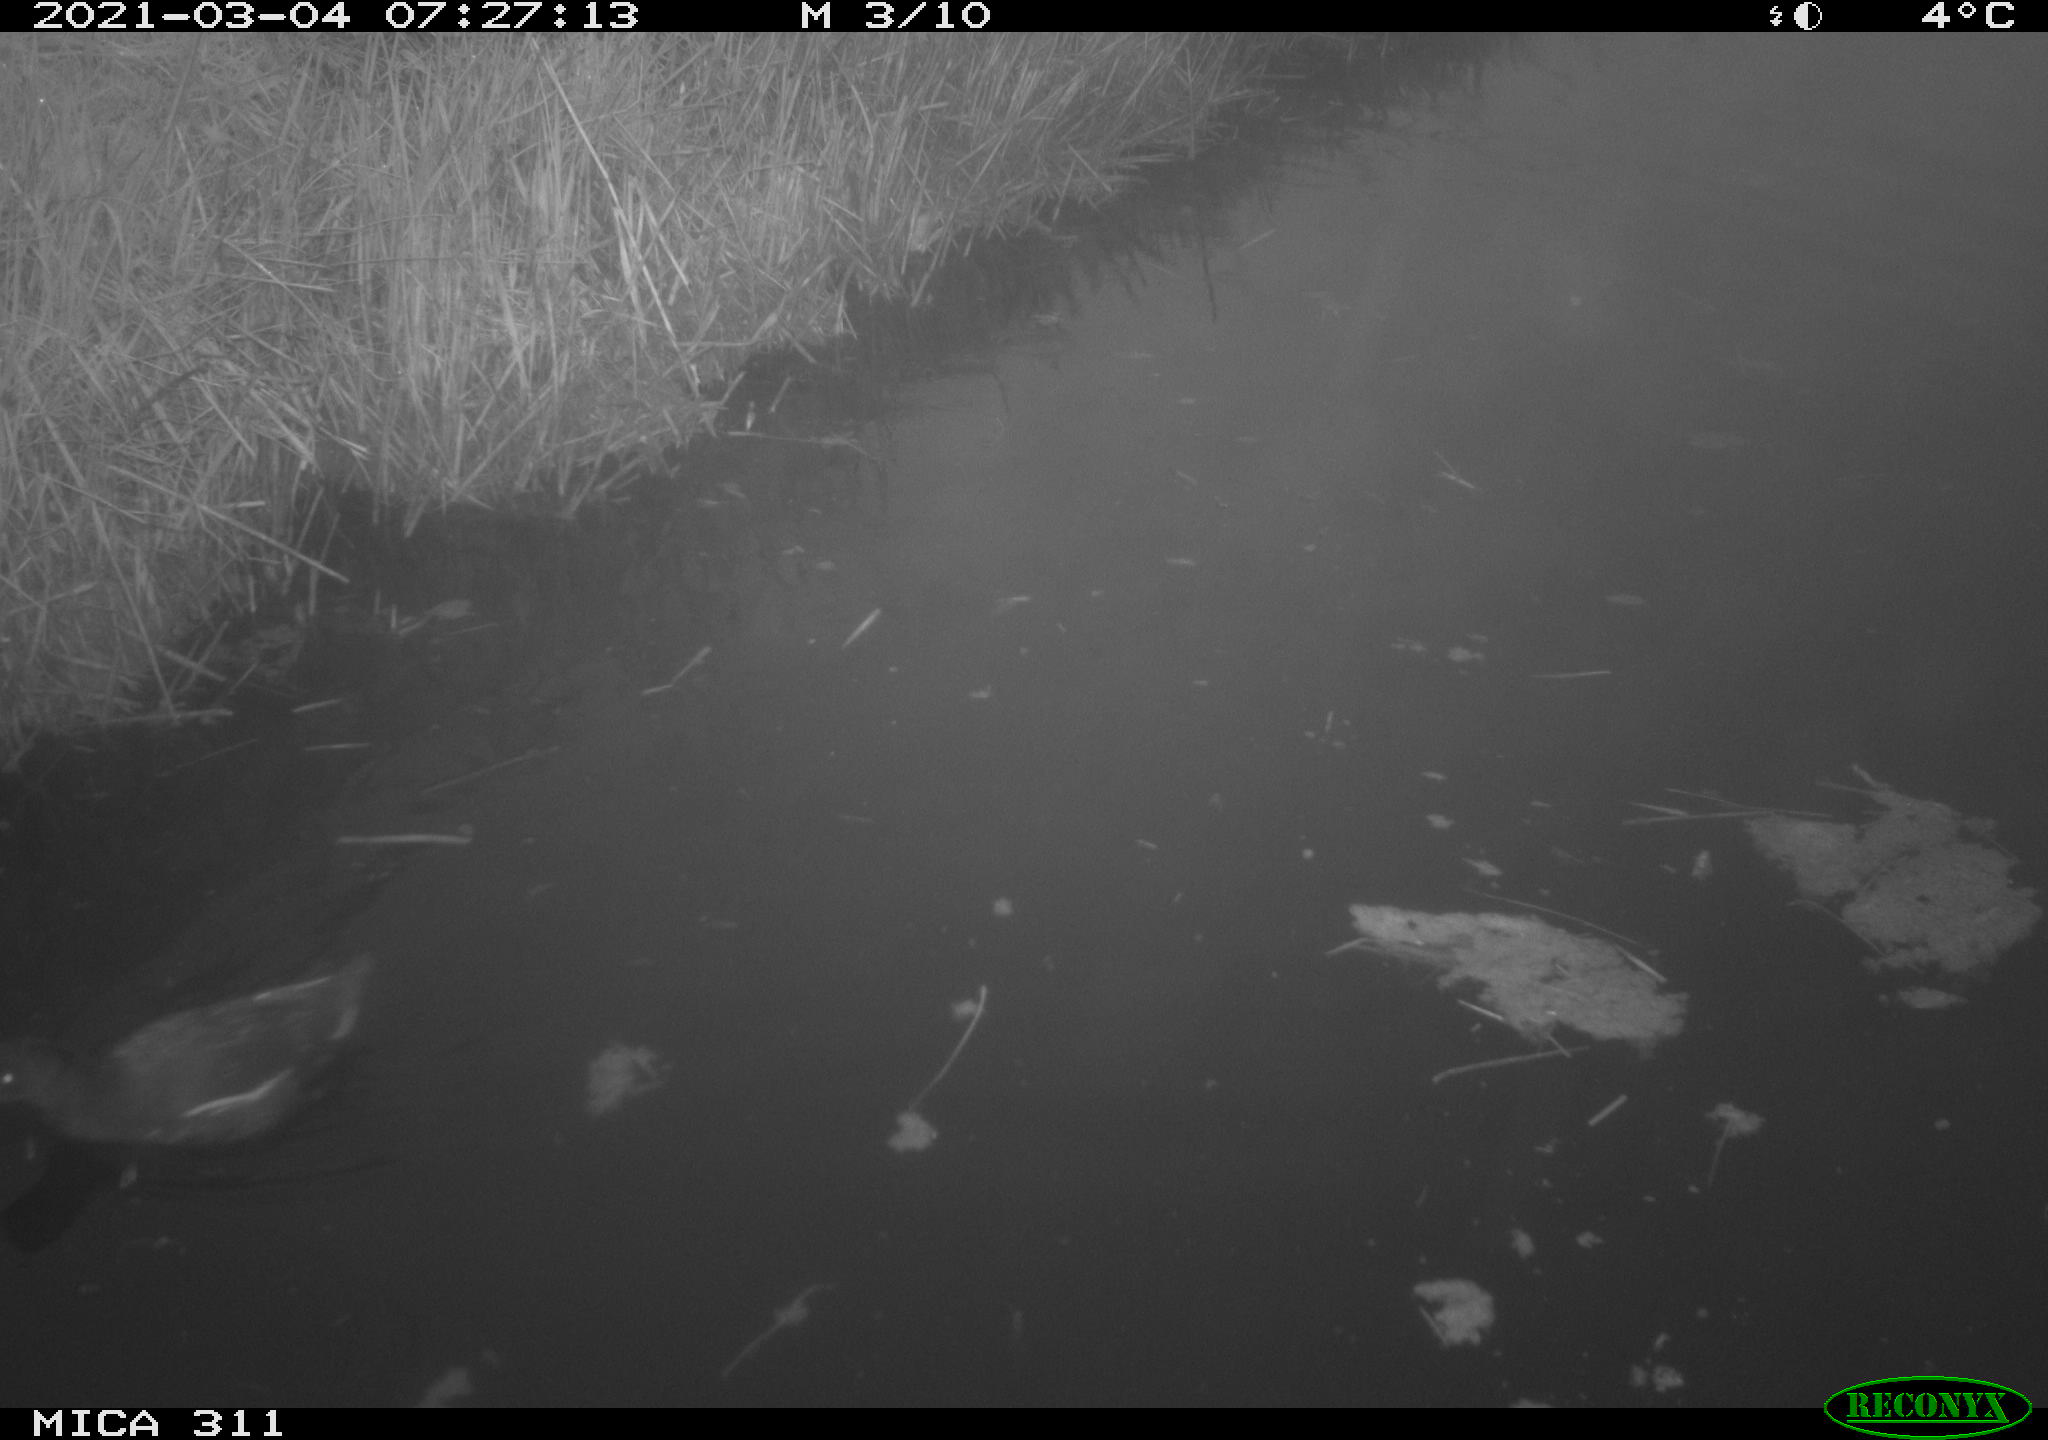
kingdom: Animalia
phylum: Chordata
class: Aves
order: Gruiformes
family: Rallidae
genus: Gallinula
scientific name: Gallinula chloropus
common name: Common moorhen
